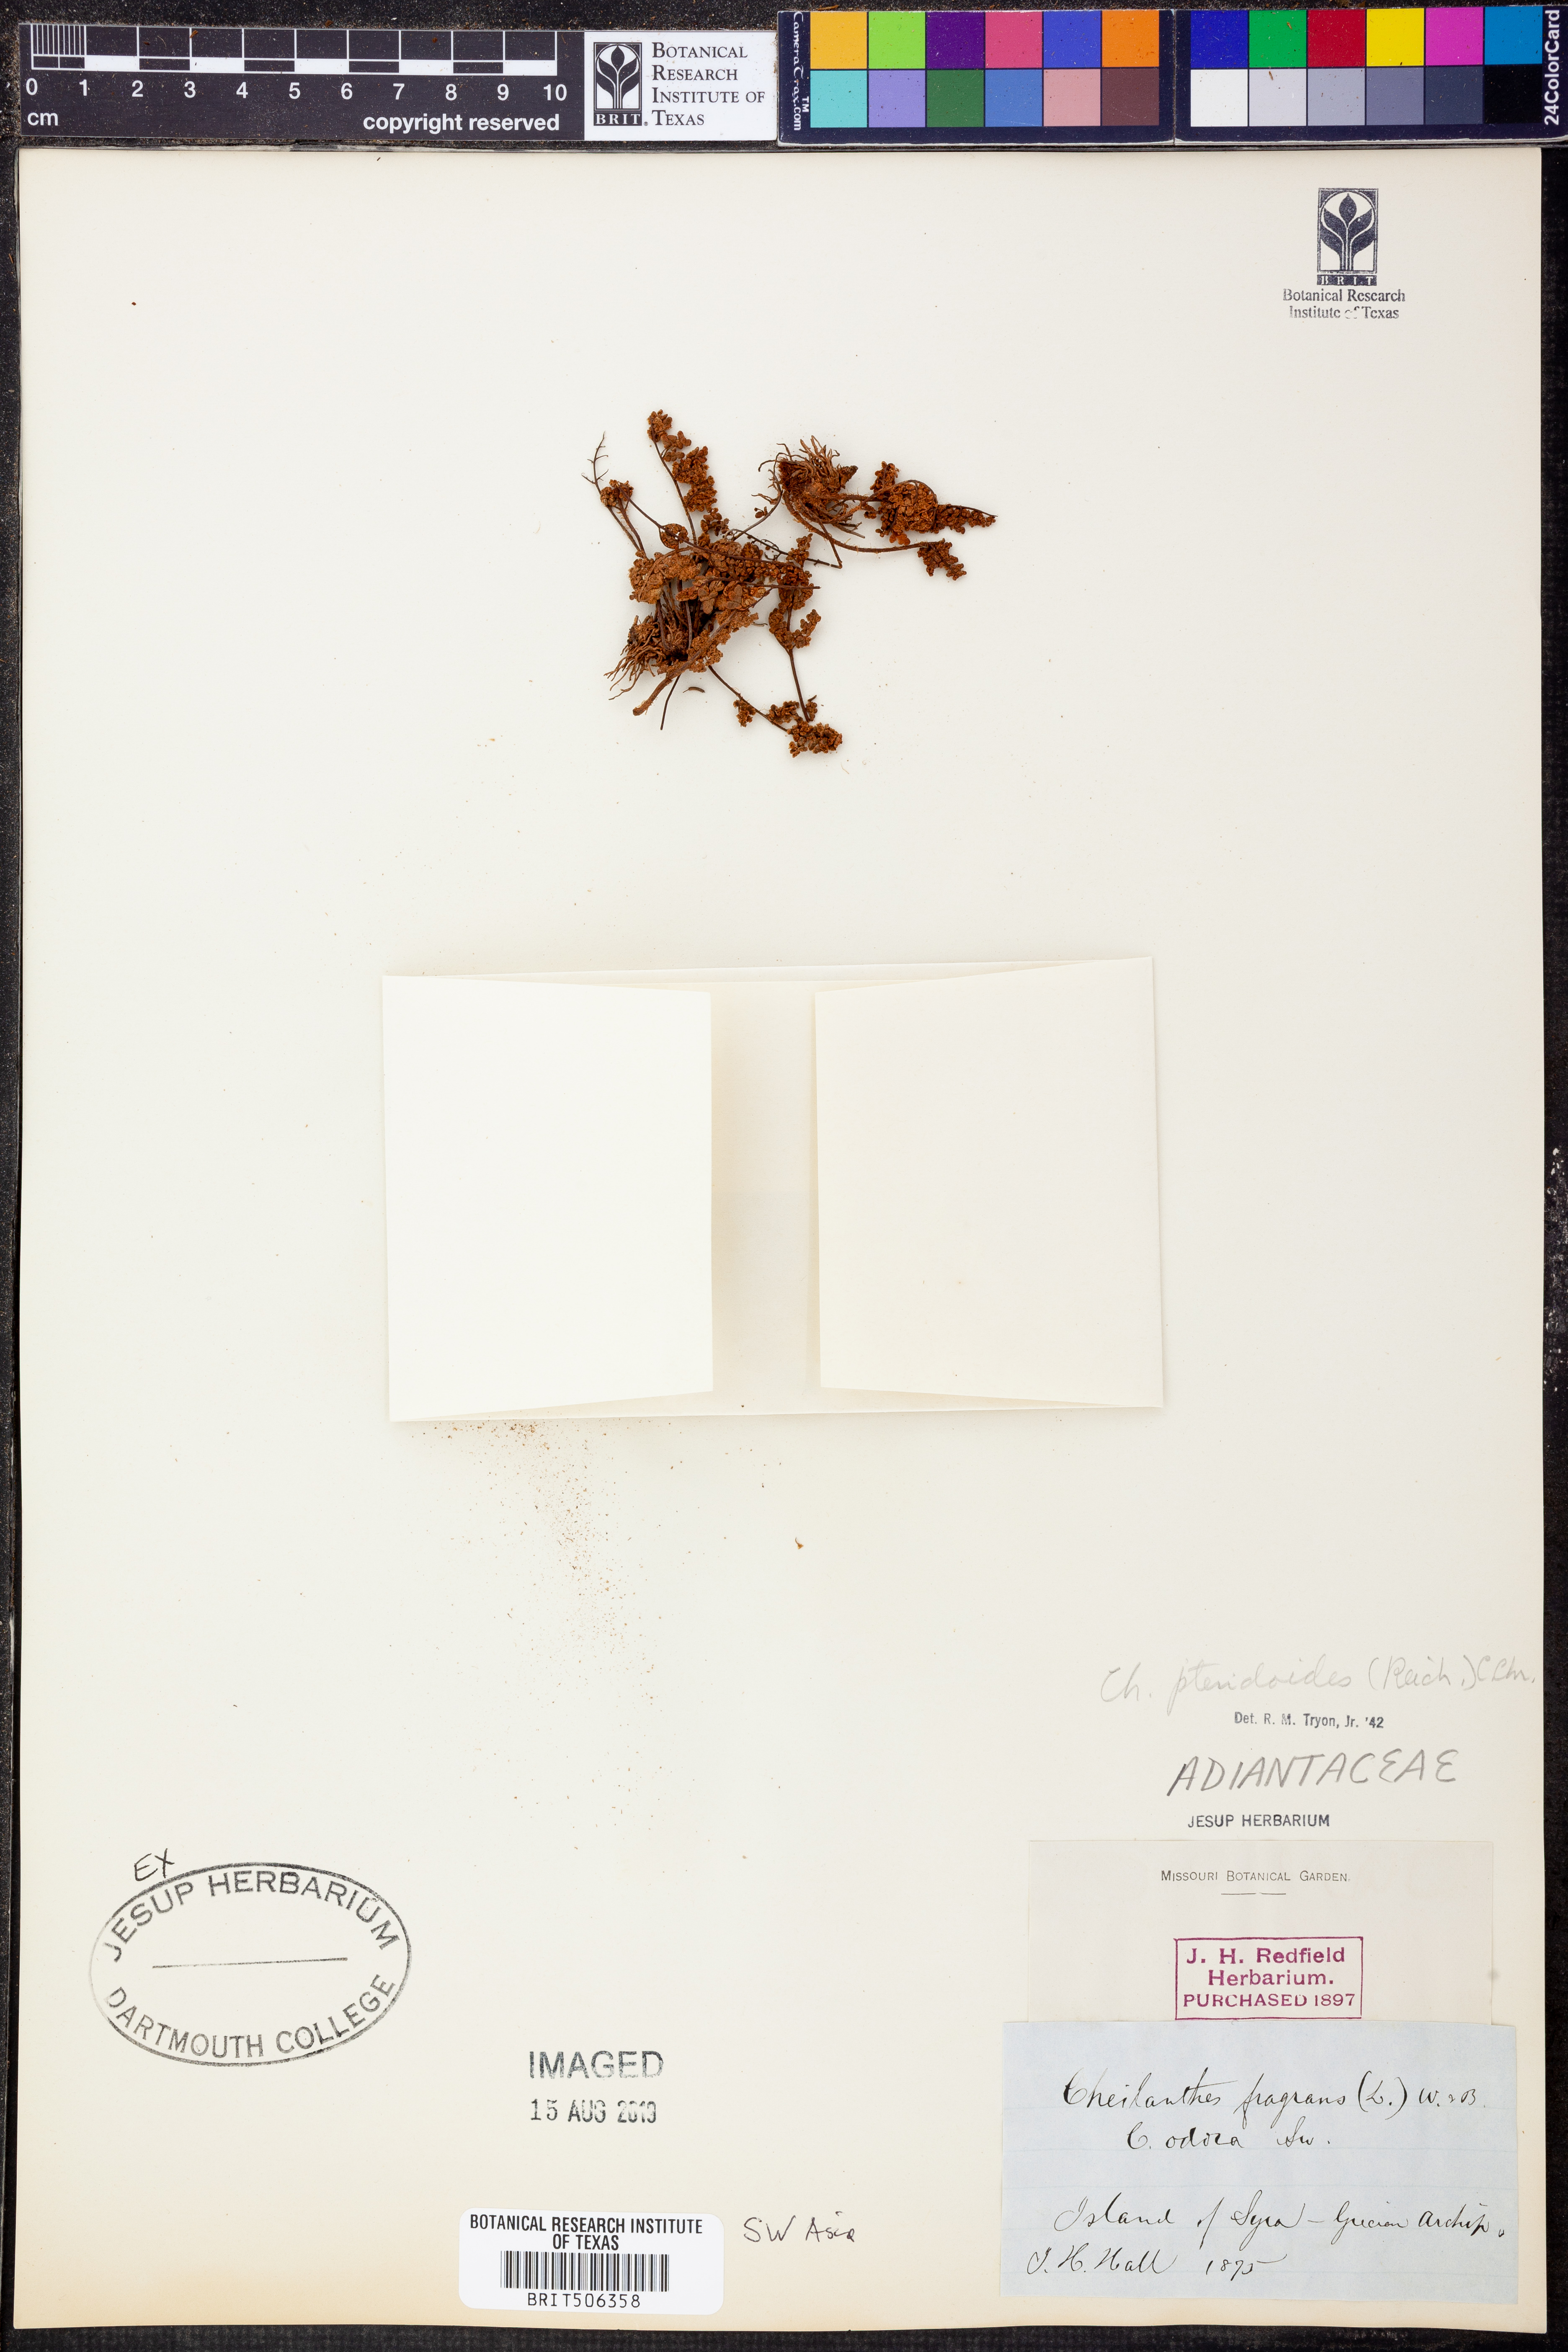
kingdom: Plantae
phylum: Tracheophyta
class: Polypodiopsida
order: Polypodiales
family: Pteridaceae
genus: Oeosporangium
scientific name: Oeosporangium pteridioides
